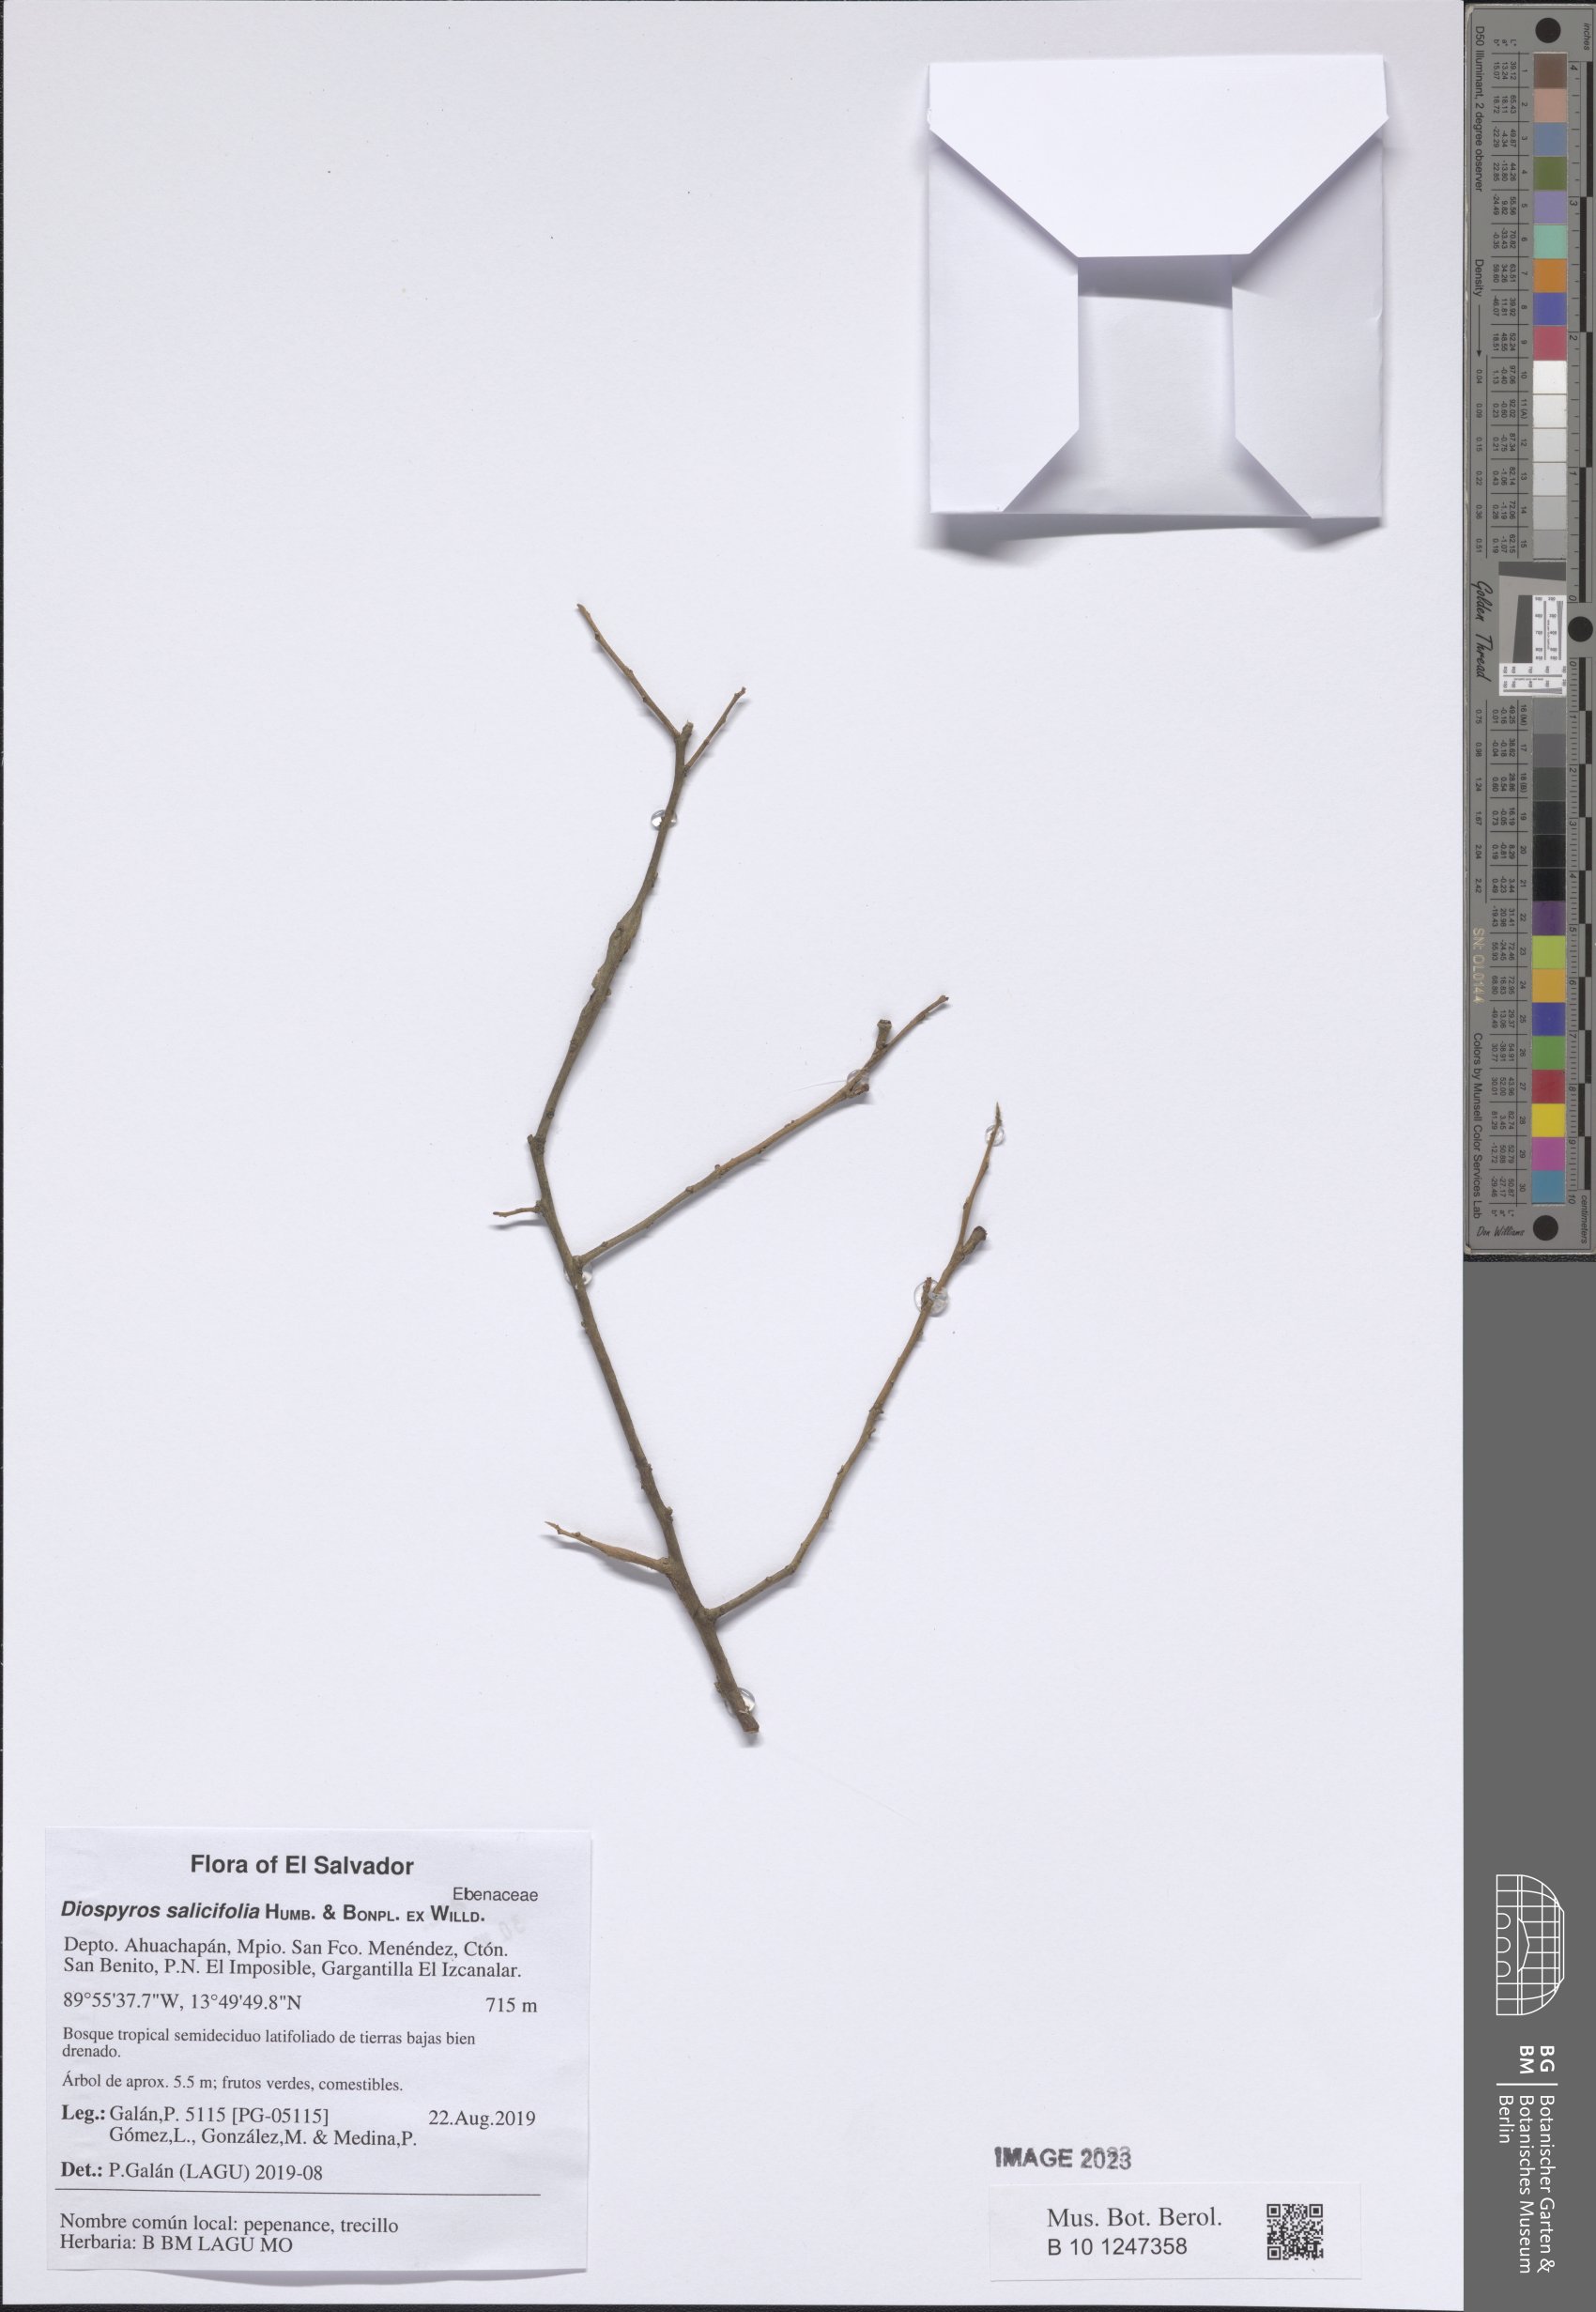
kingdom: Plantae
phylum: Tracheophyta
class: Magnoliopsida
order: Ericales
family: Ebenaceae
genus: Diospyros
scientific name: Diospyros salicifolia
